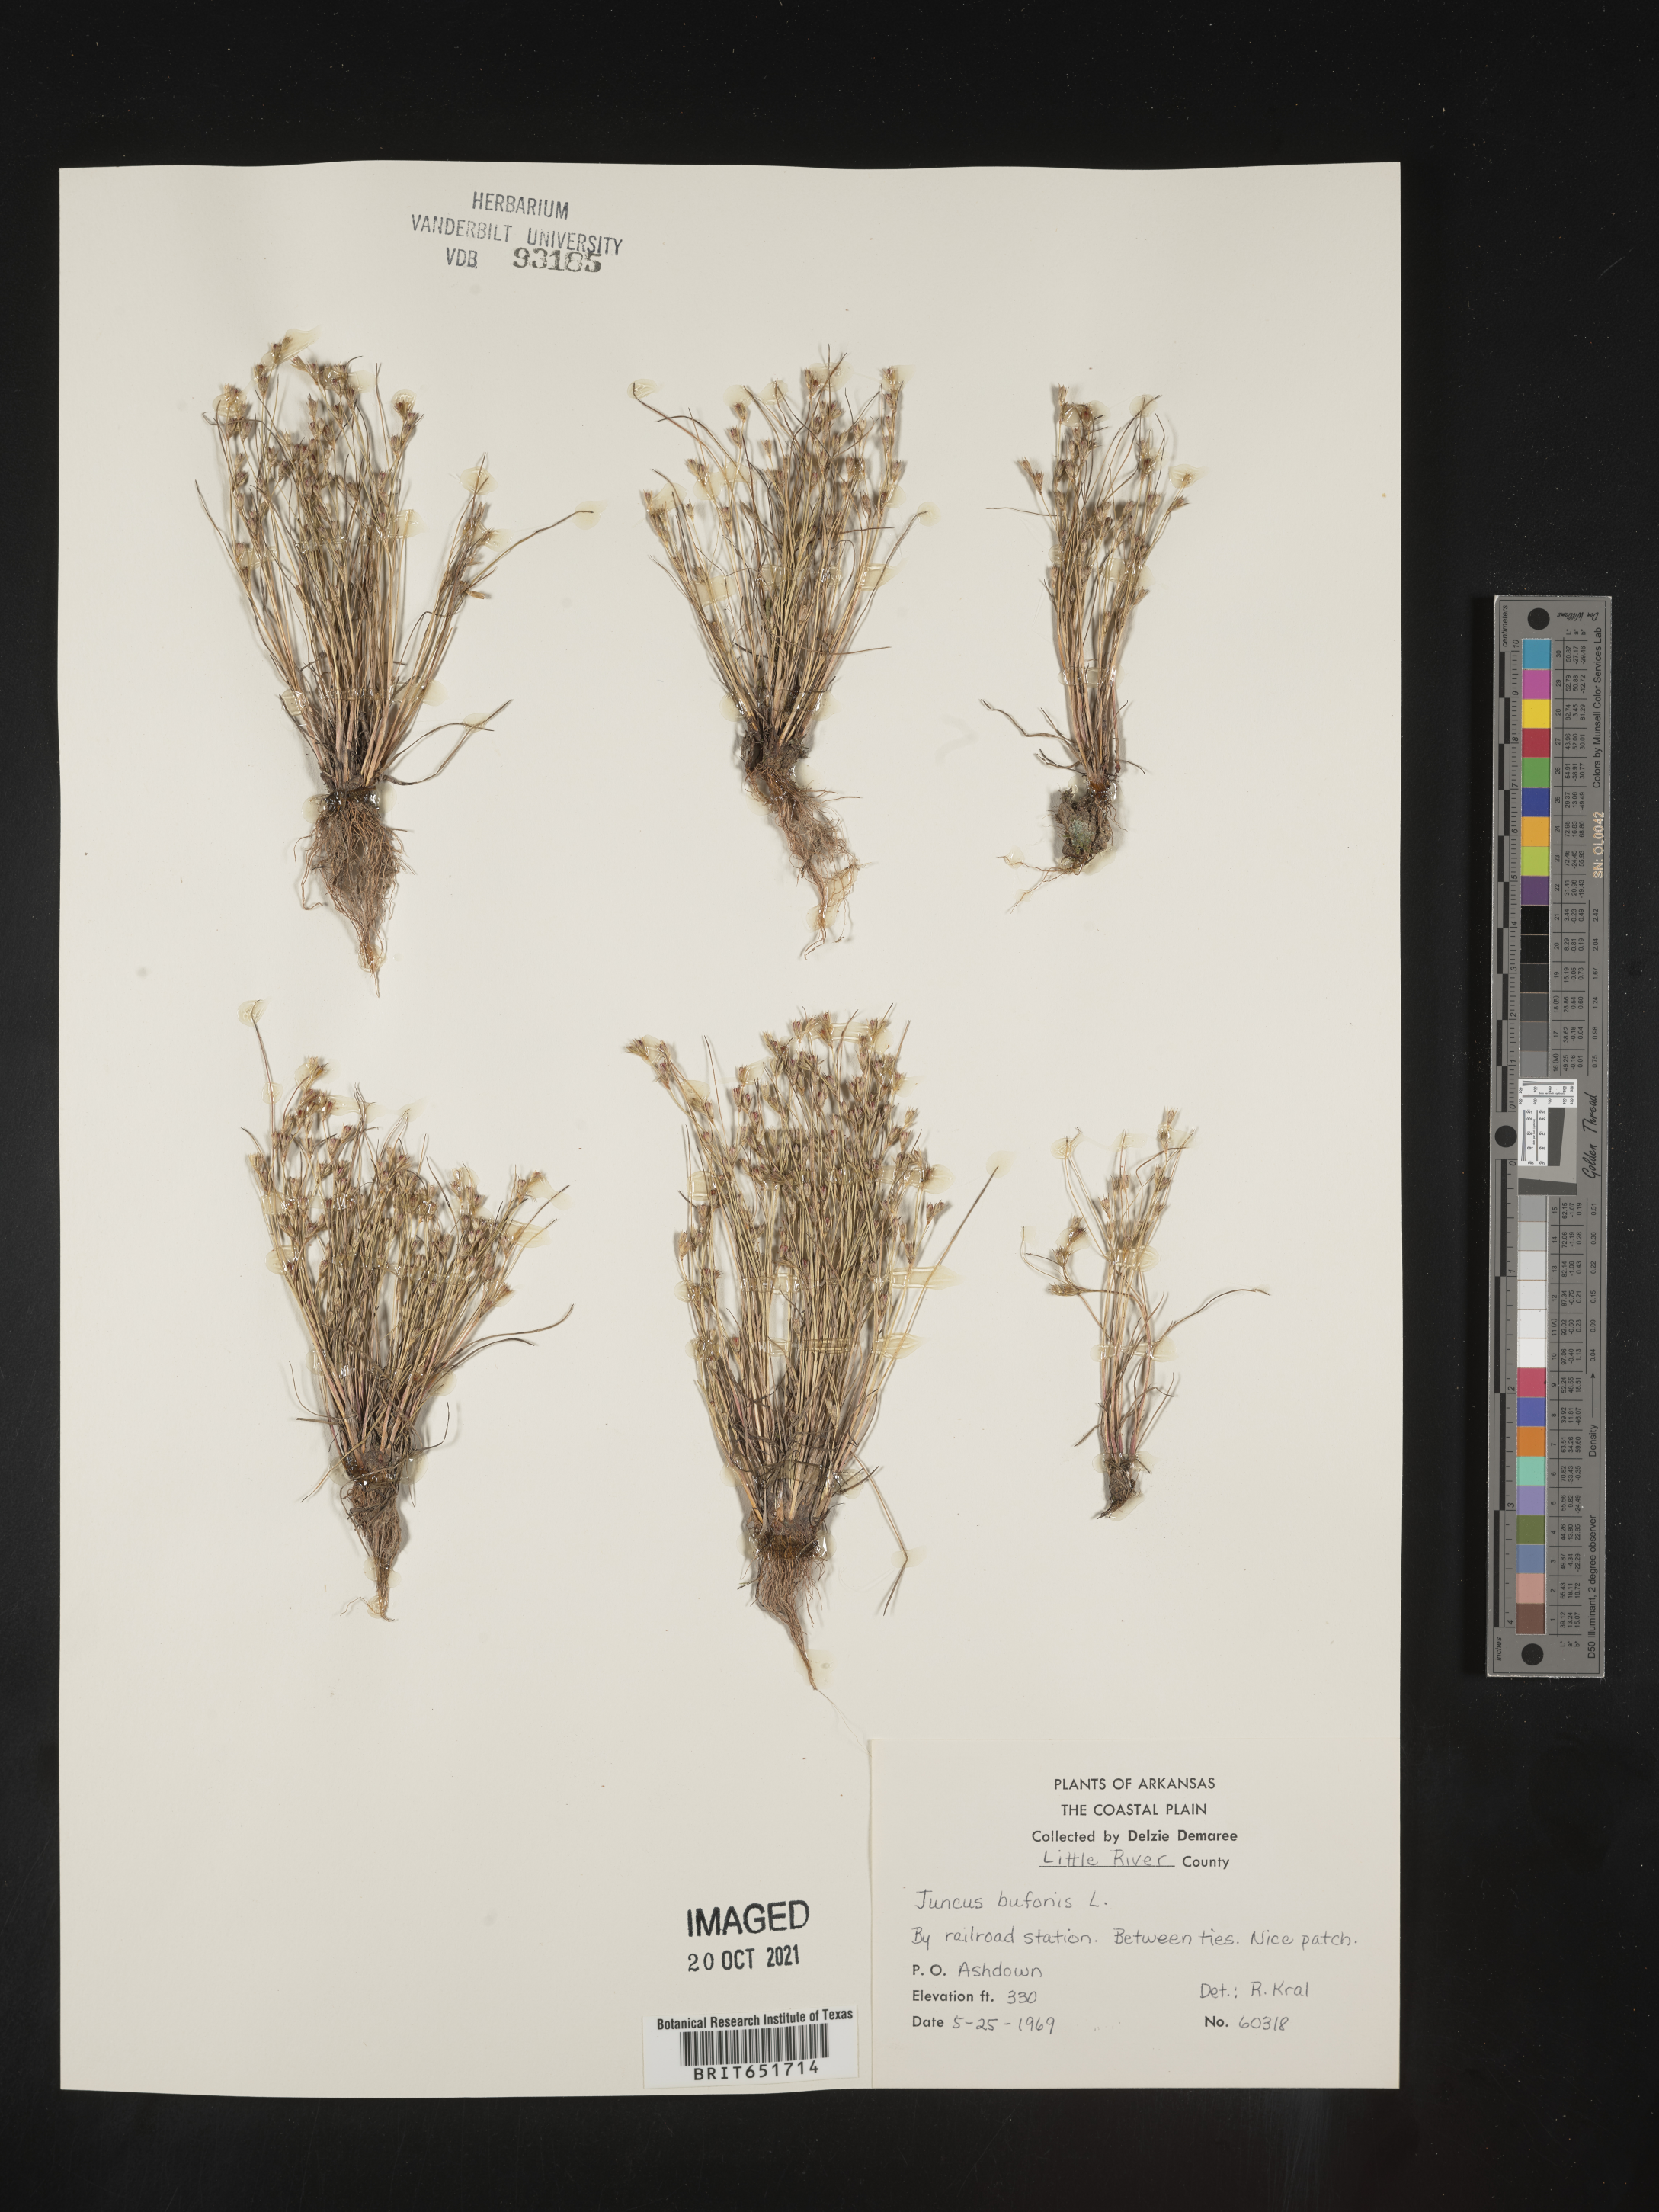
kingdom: Plantae
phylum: Tracheophyta
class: Liliopsida
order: Poales
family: Juncaceae
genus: Juncus
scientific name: Juncus bufonius
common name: Toad rush
